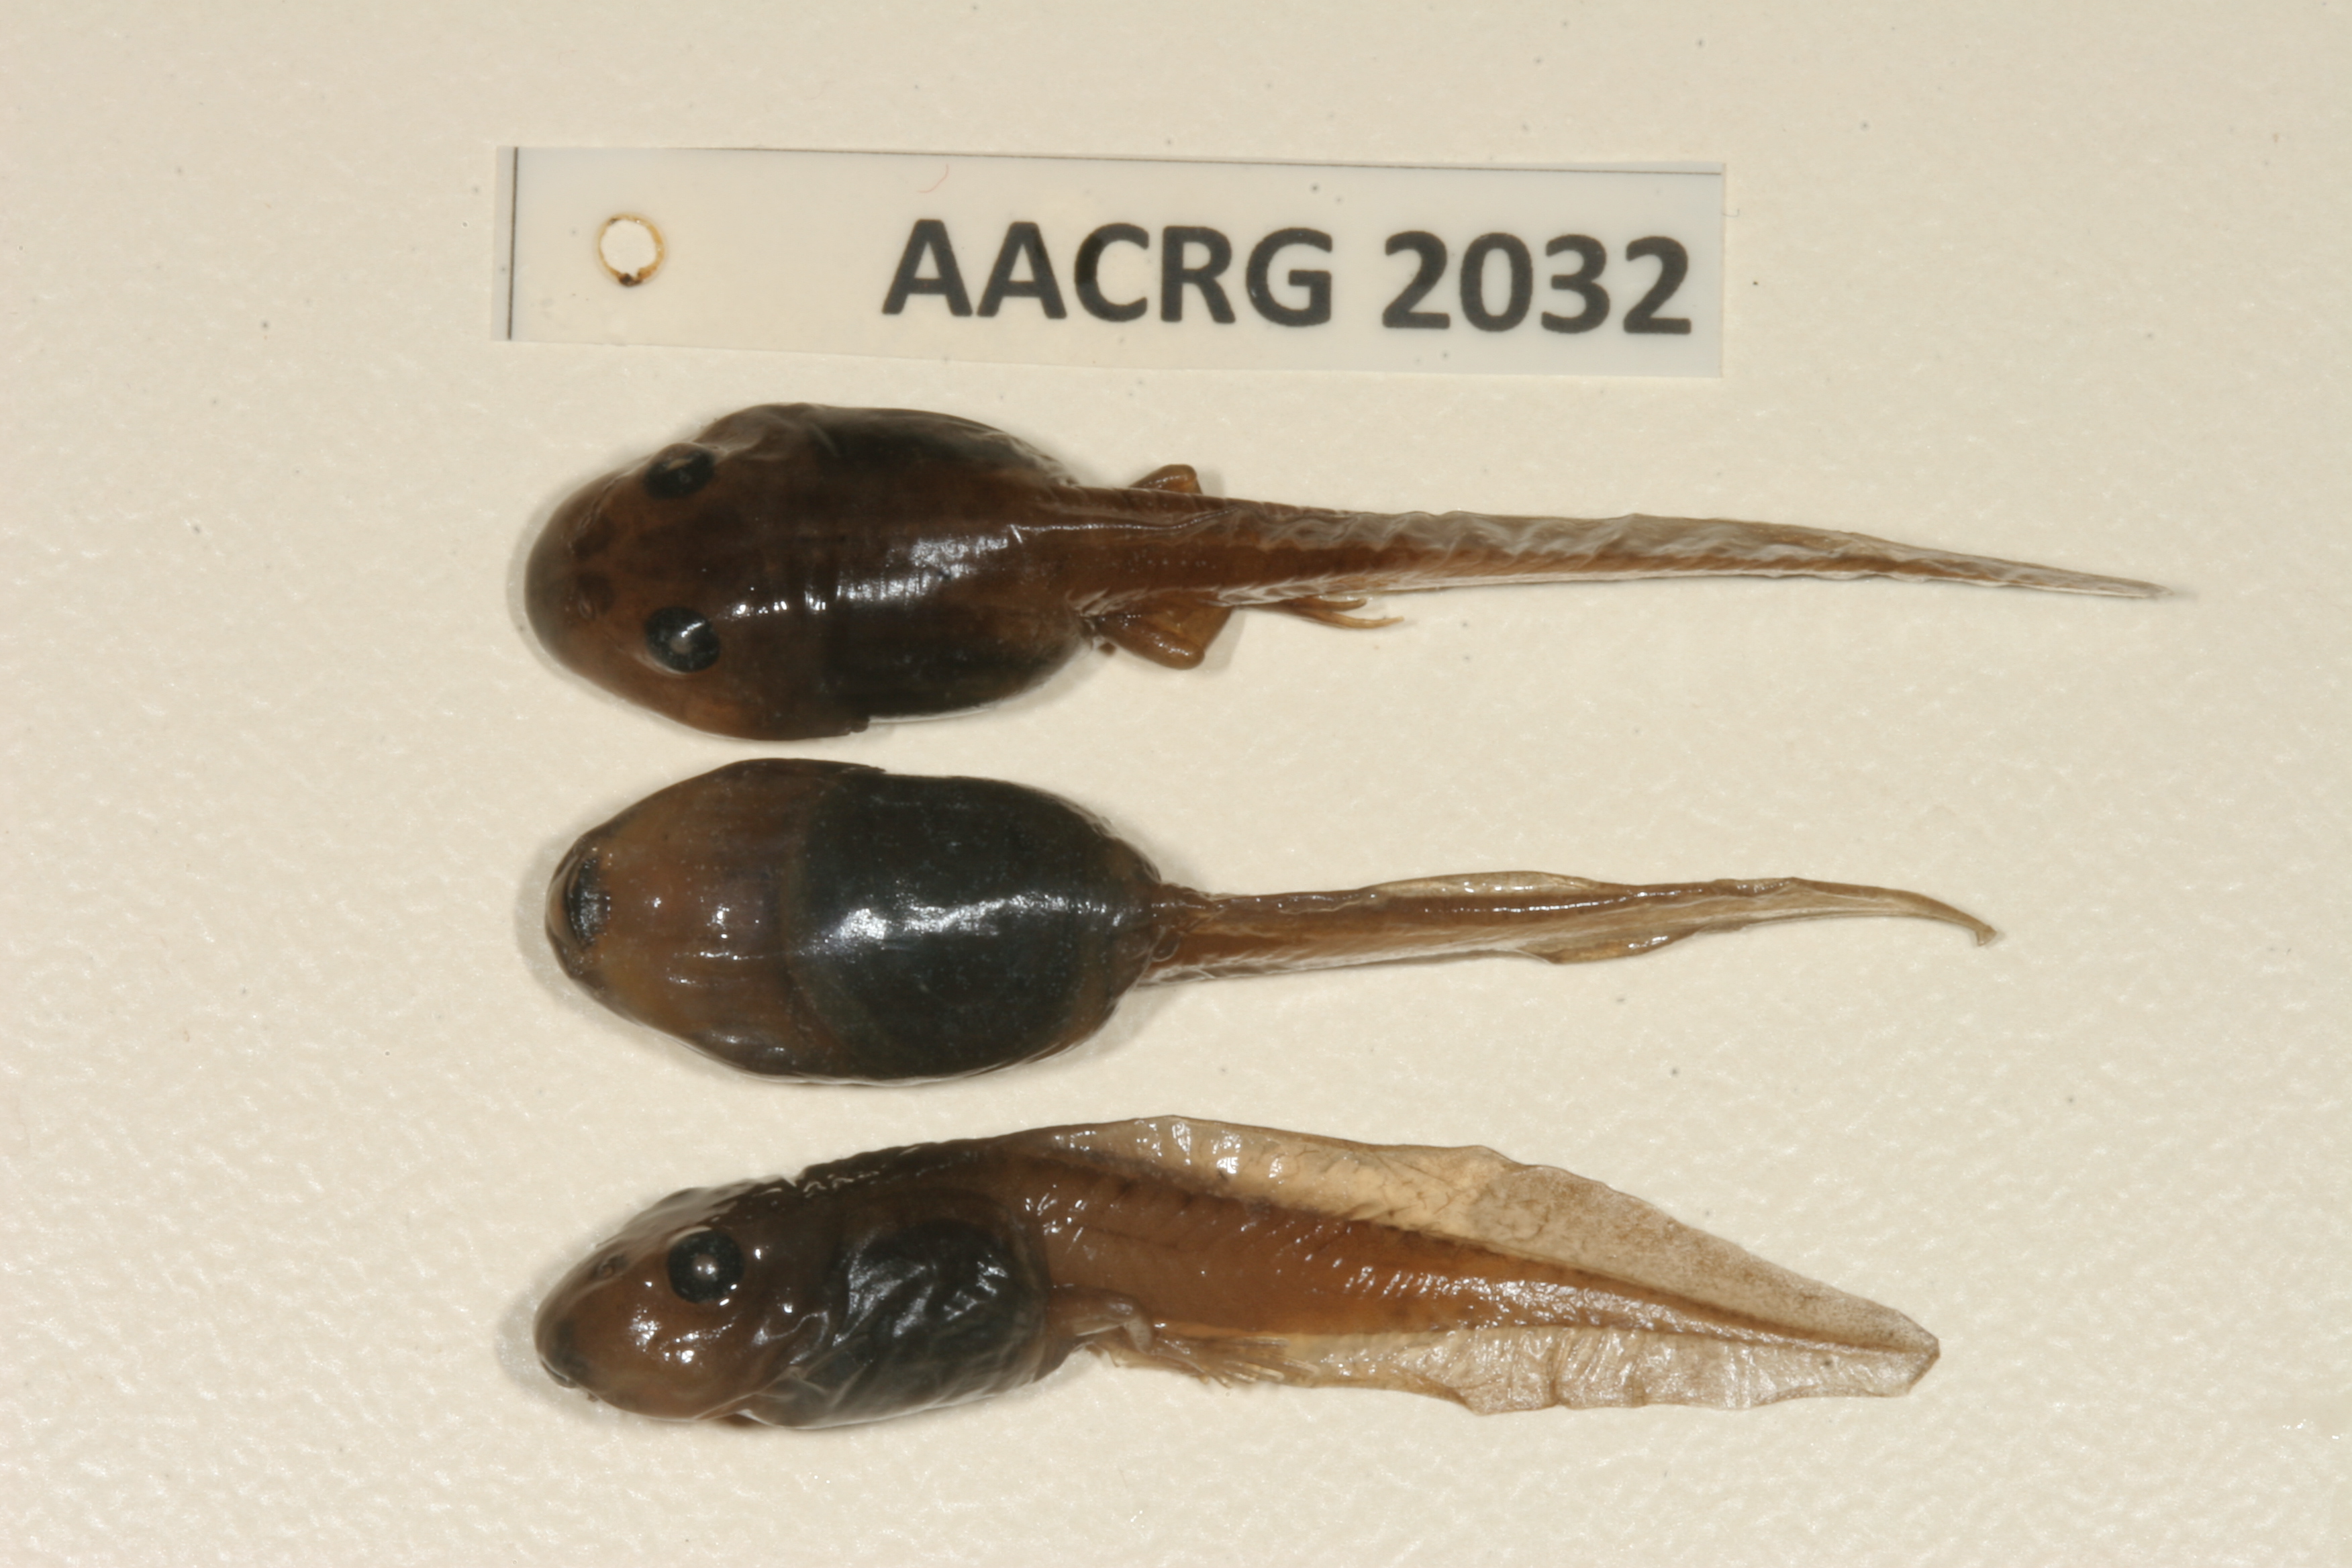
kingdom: Animalia
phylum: Chordata
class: Amphibia
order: Anura
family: Pyxicephalidae
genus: Strongylopus
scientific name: Strongylopus grayii
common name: Gray's stream frog
